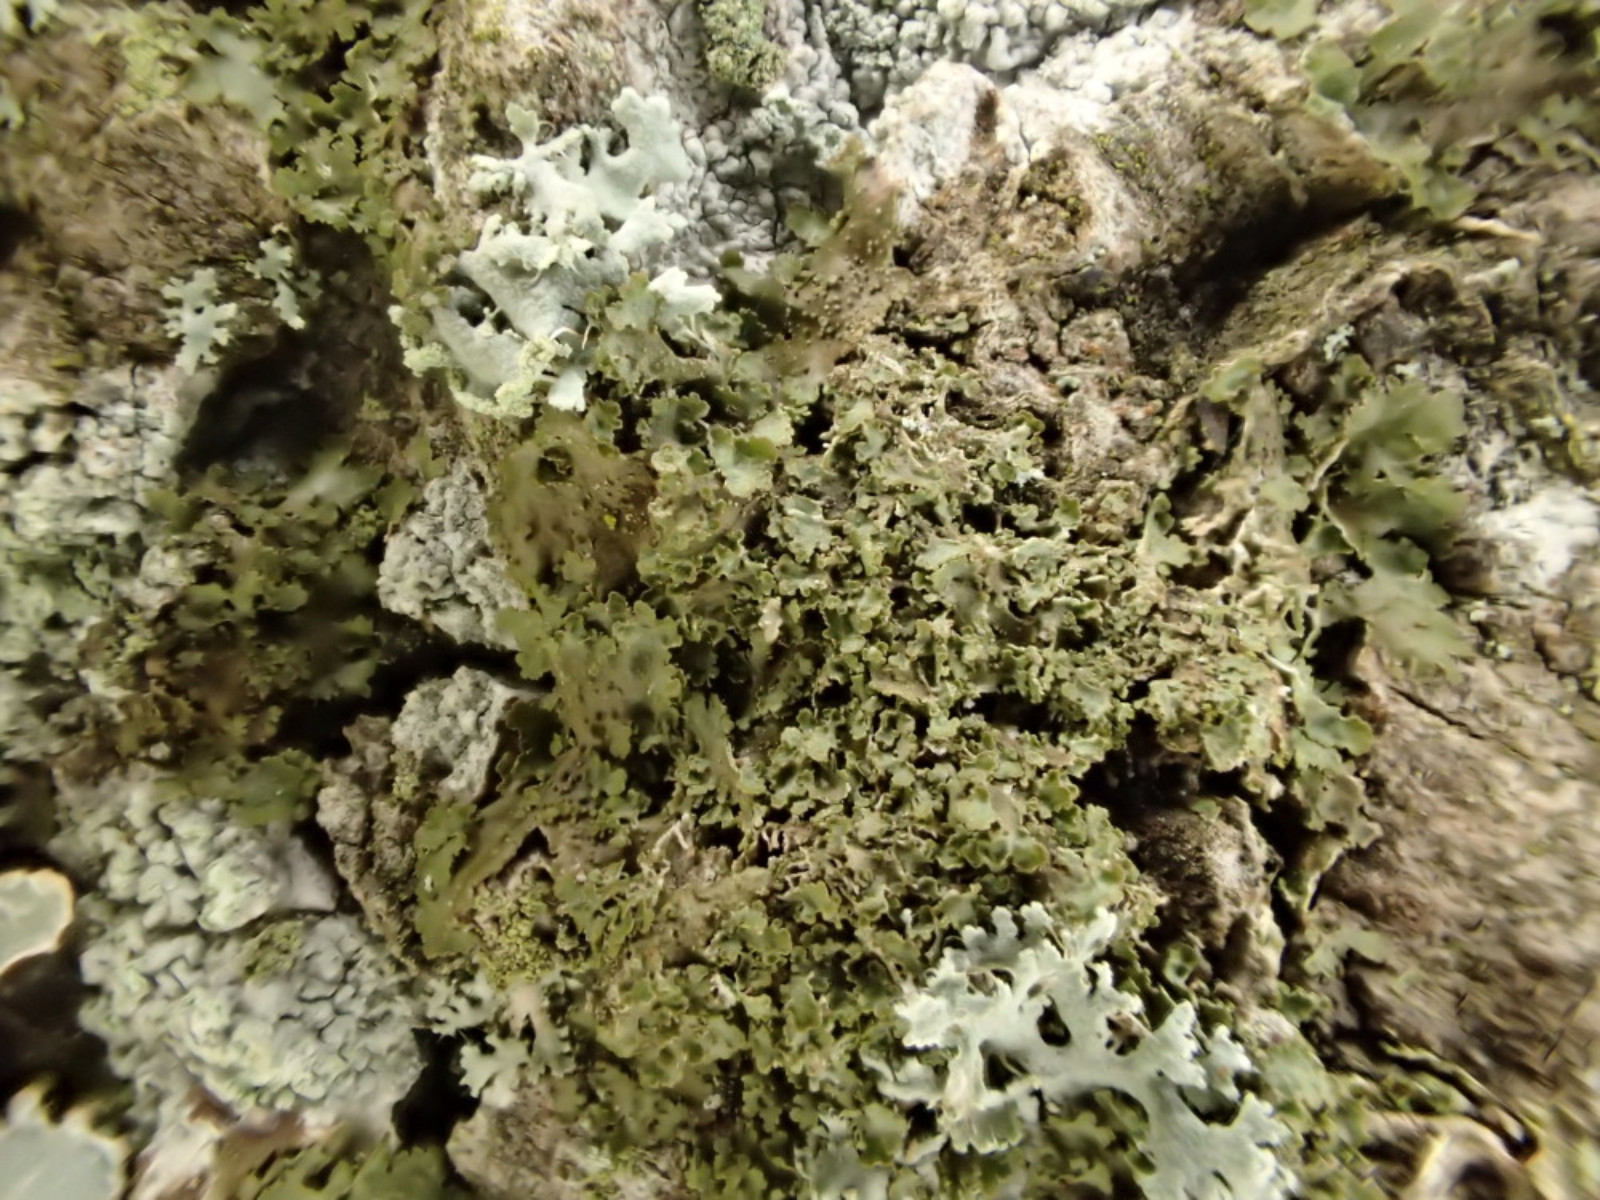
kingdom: Fungi
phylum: Ascomycota
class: Lecanoromycetes
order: Lecanorales
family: Parmeliaceae
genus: Melanohalea
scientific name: Melanohalea laciniatula
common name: småfliget skållav
